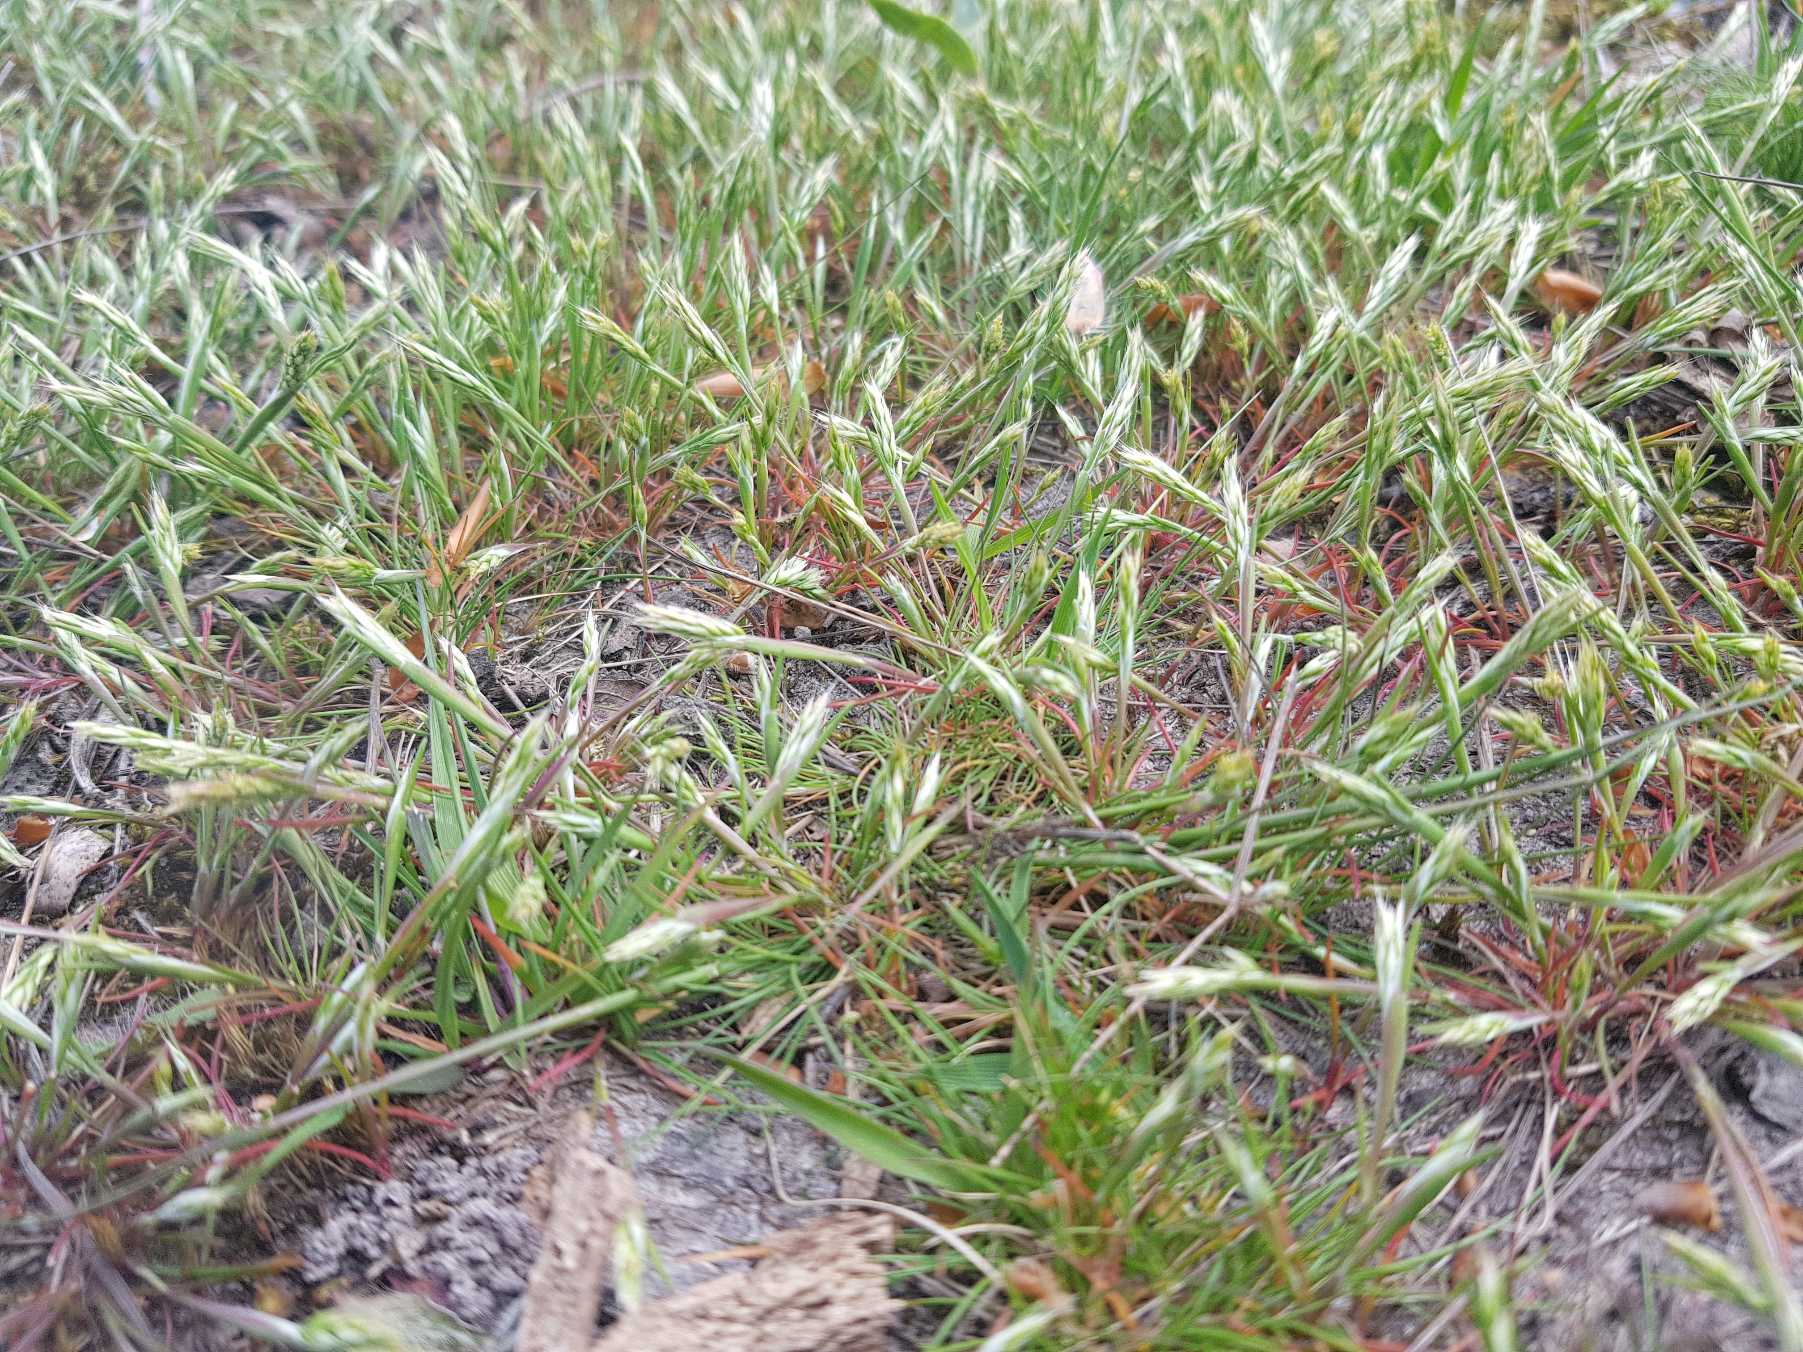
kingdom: Plantae
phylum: Tracheophyta
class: Liliopsida
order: Poales
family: Poaceae
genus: Aira
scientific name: Aira praecox
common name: Tidlig dværgbunke
